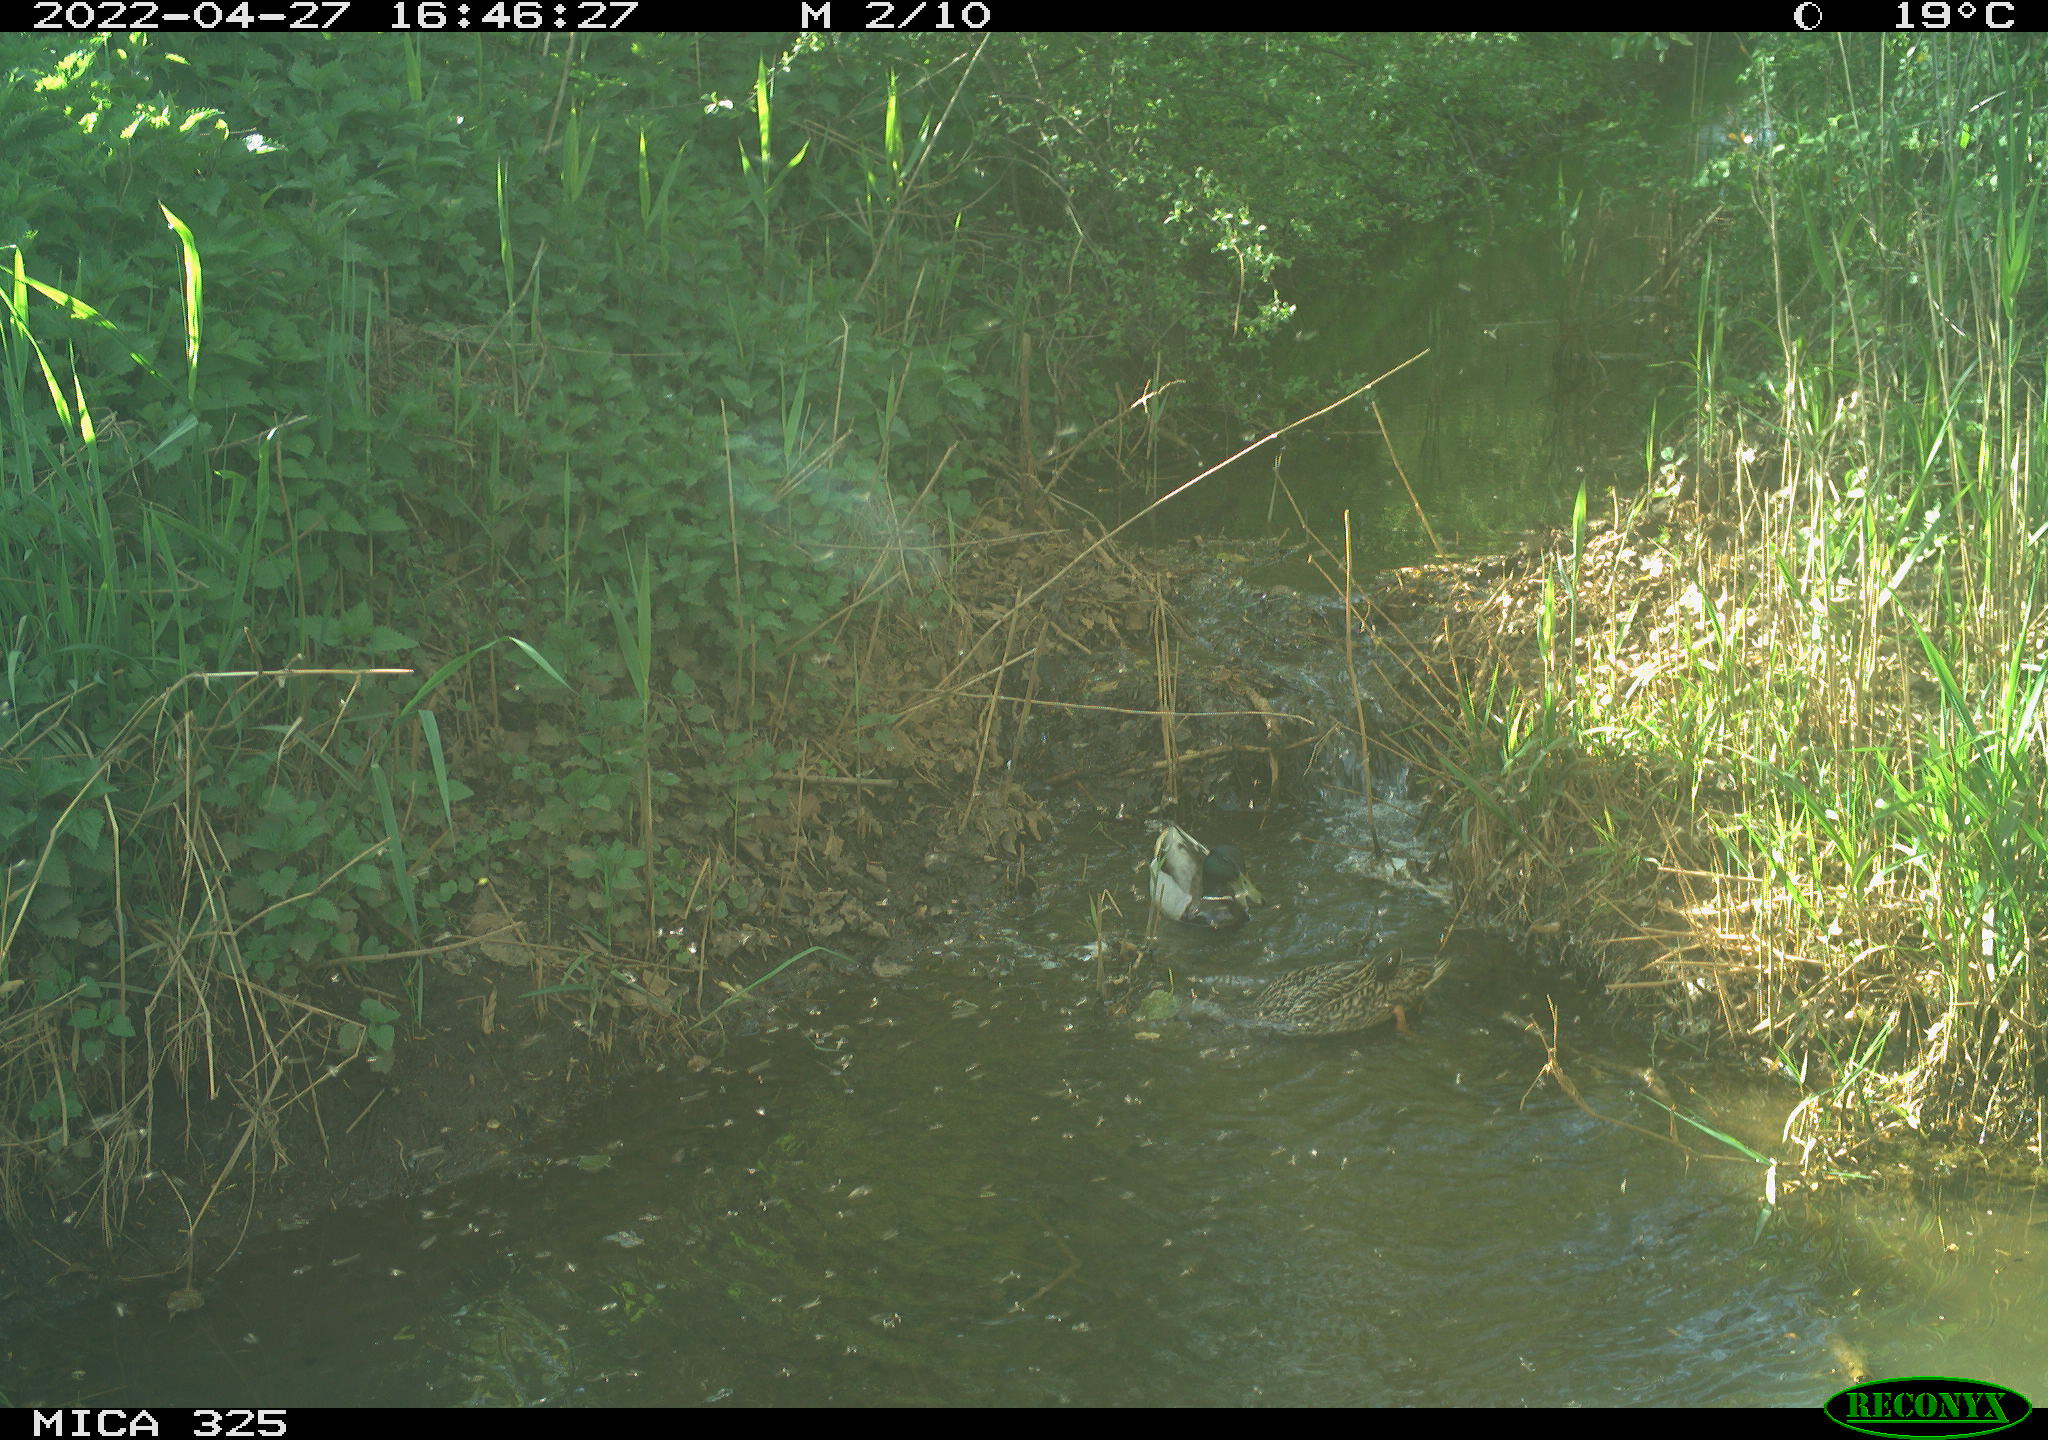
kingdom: Animalia
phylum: Chordata
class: Aves
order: Anseriformes
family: Anatidae
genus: Anas
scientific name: Anas platyrhynchos
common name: Mallard
